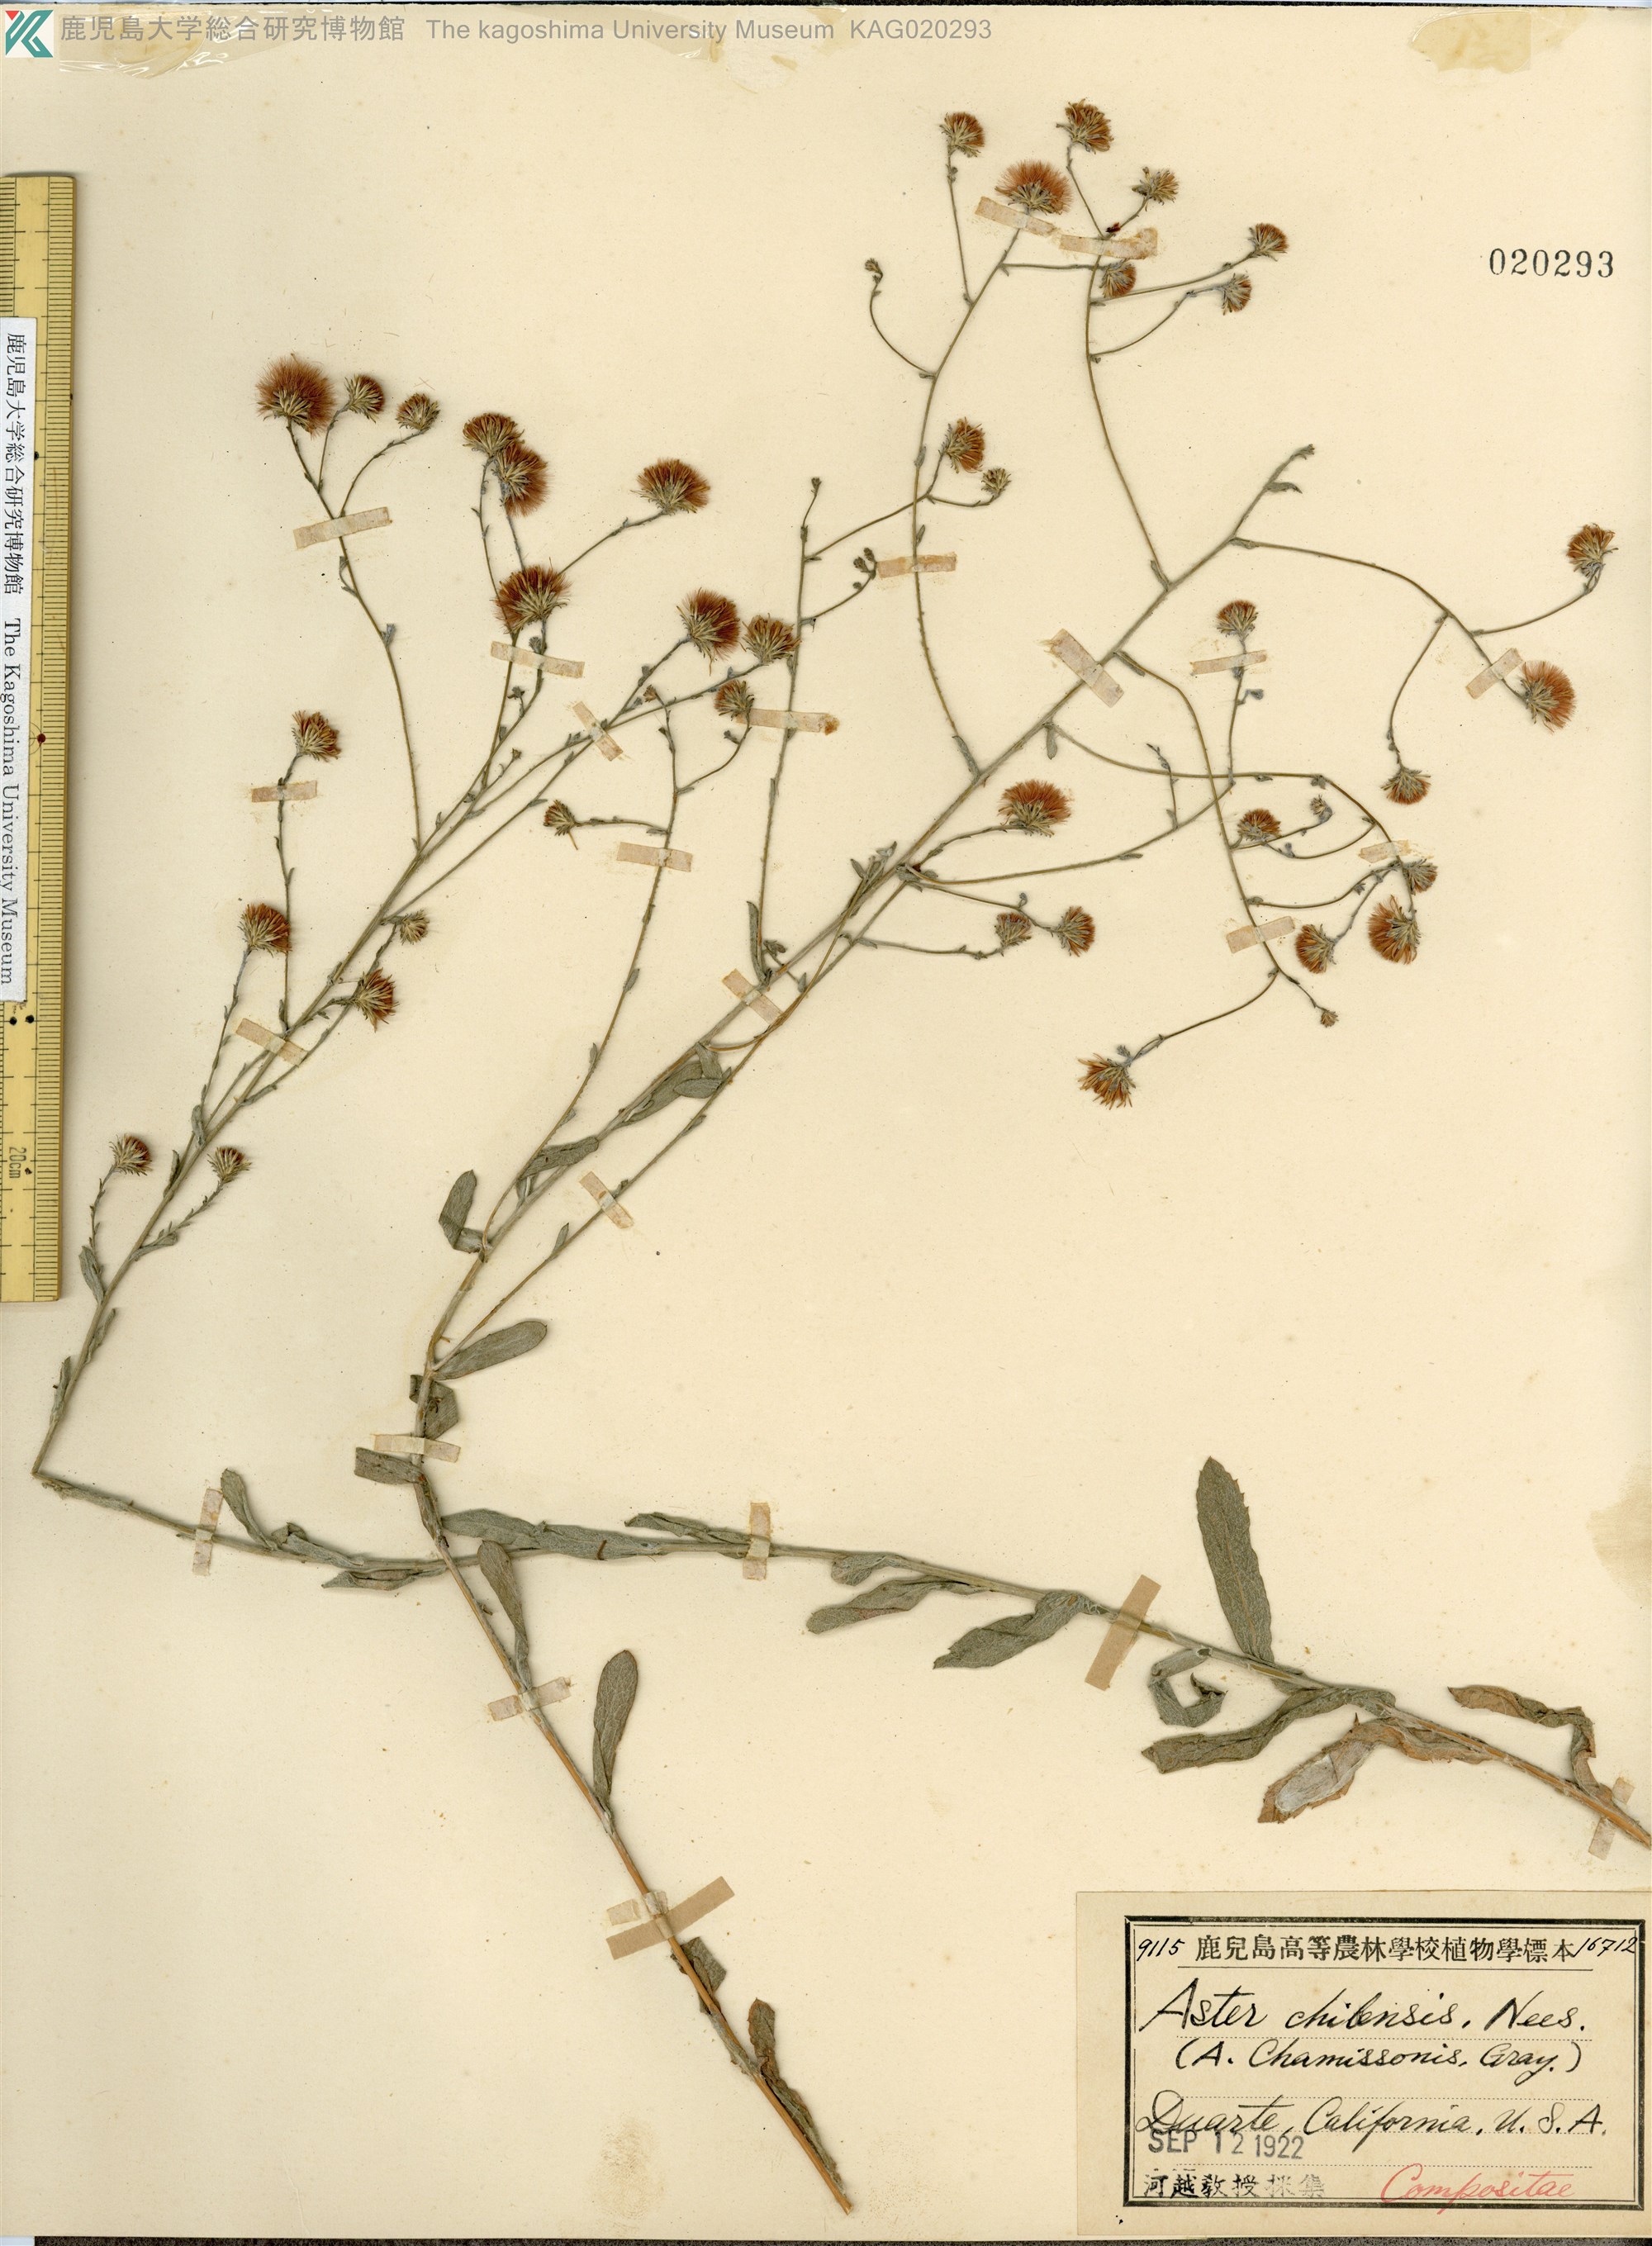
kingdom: Plantae
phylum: Tracheophyta
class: Magnoliopsida
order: Asterales
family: Asteraceae
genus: Symphyotrichum
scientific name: Symphyotrichum chilense
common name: Pacific aster
